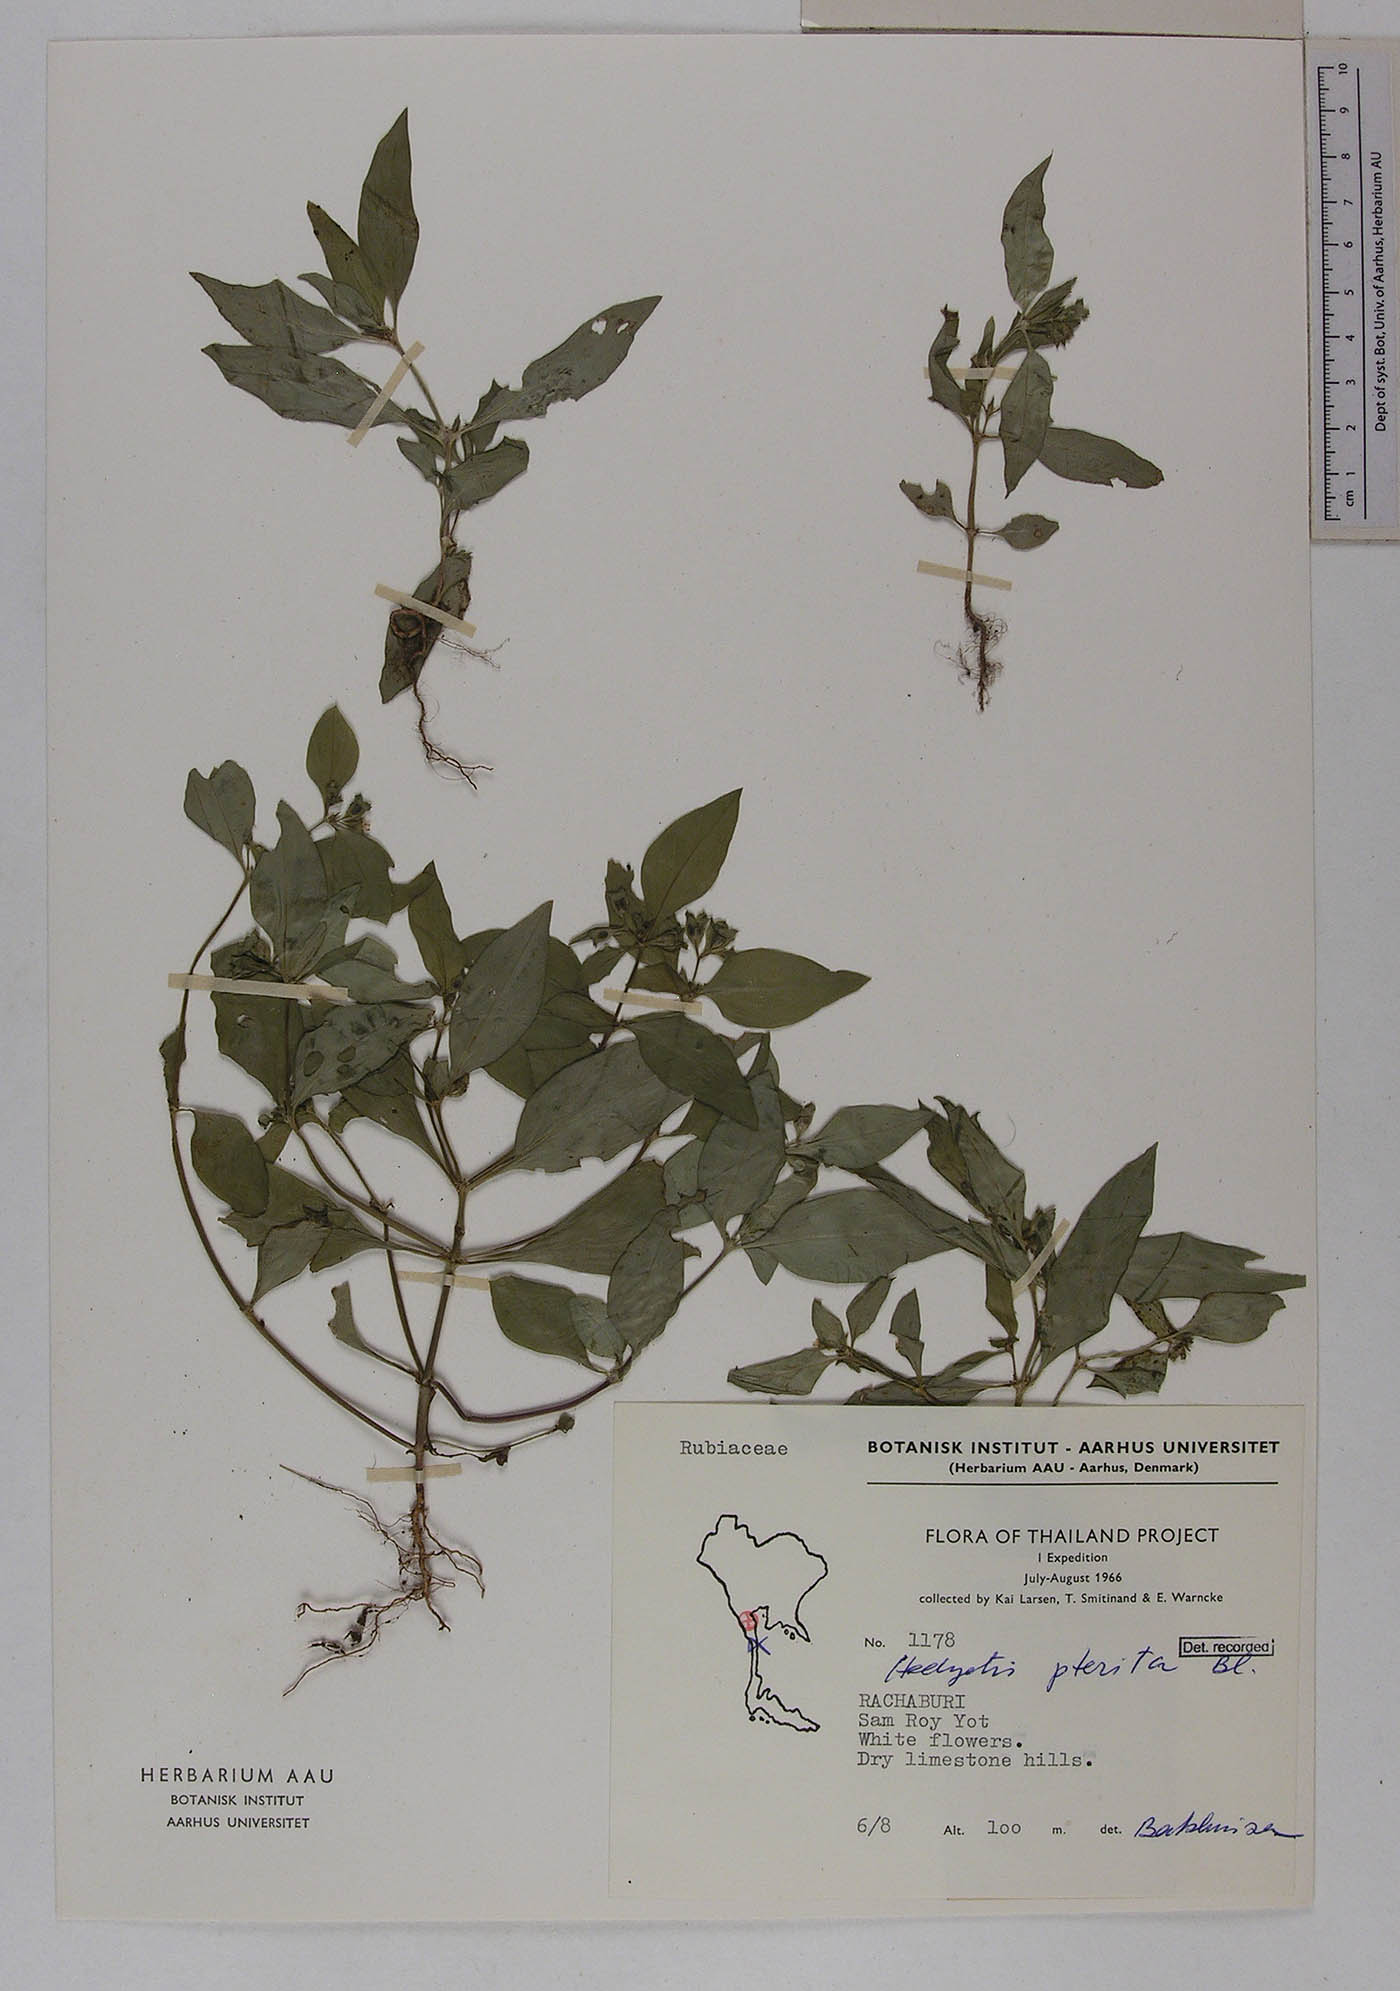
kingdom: Plantae
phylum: Tracheophyta
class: Magnoliopsida
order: Gentianales
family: Rubiaceae
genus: Leptopetalum
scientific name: Leptopetalum pteritum
